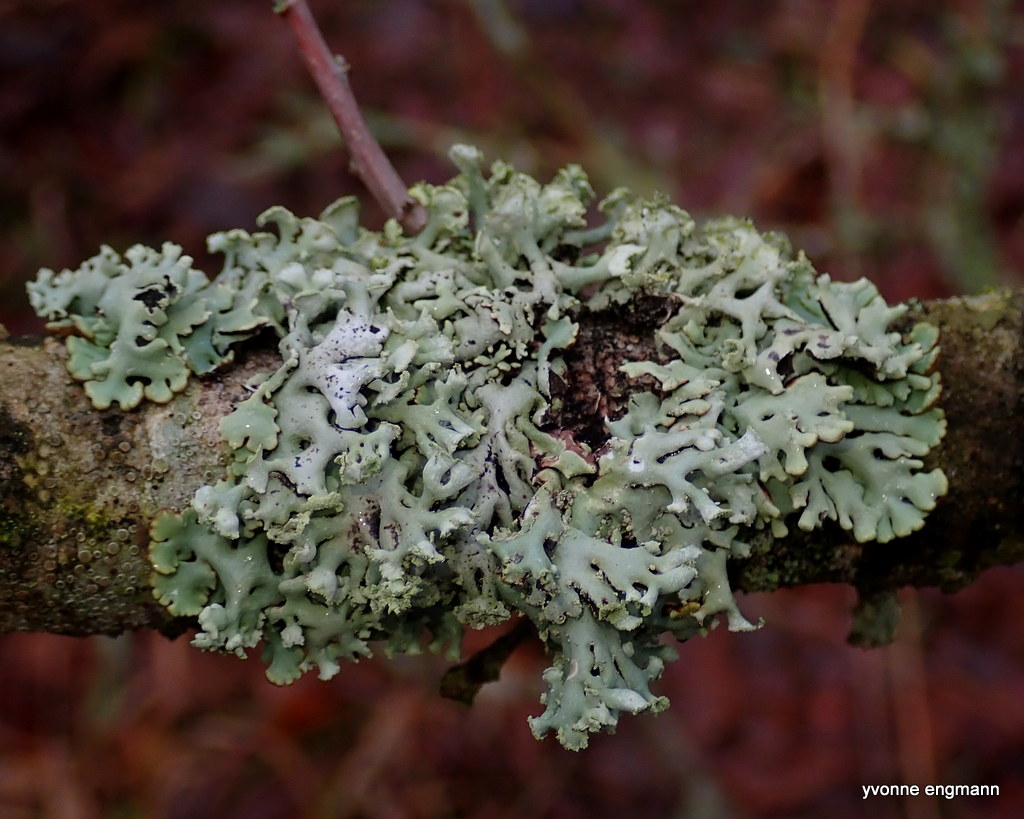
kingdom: Fungi
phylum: Ascomycota
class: Lecanoromycetes
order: Lecanorales
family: Parmeliaceae
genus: Hypogymnia
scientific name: Hypogymnia physodes
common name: almindelig kvistlav
